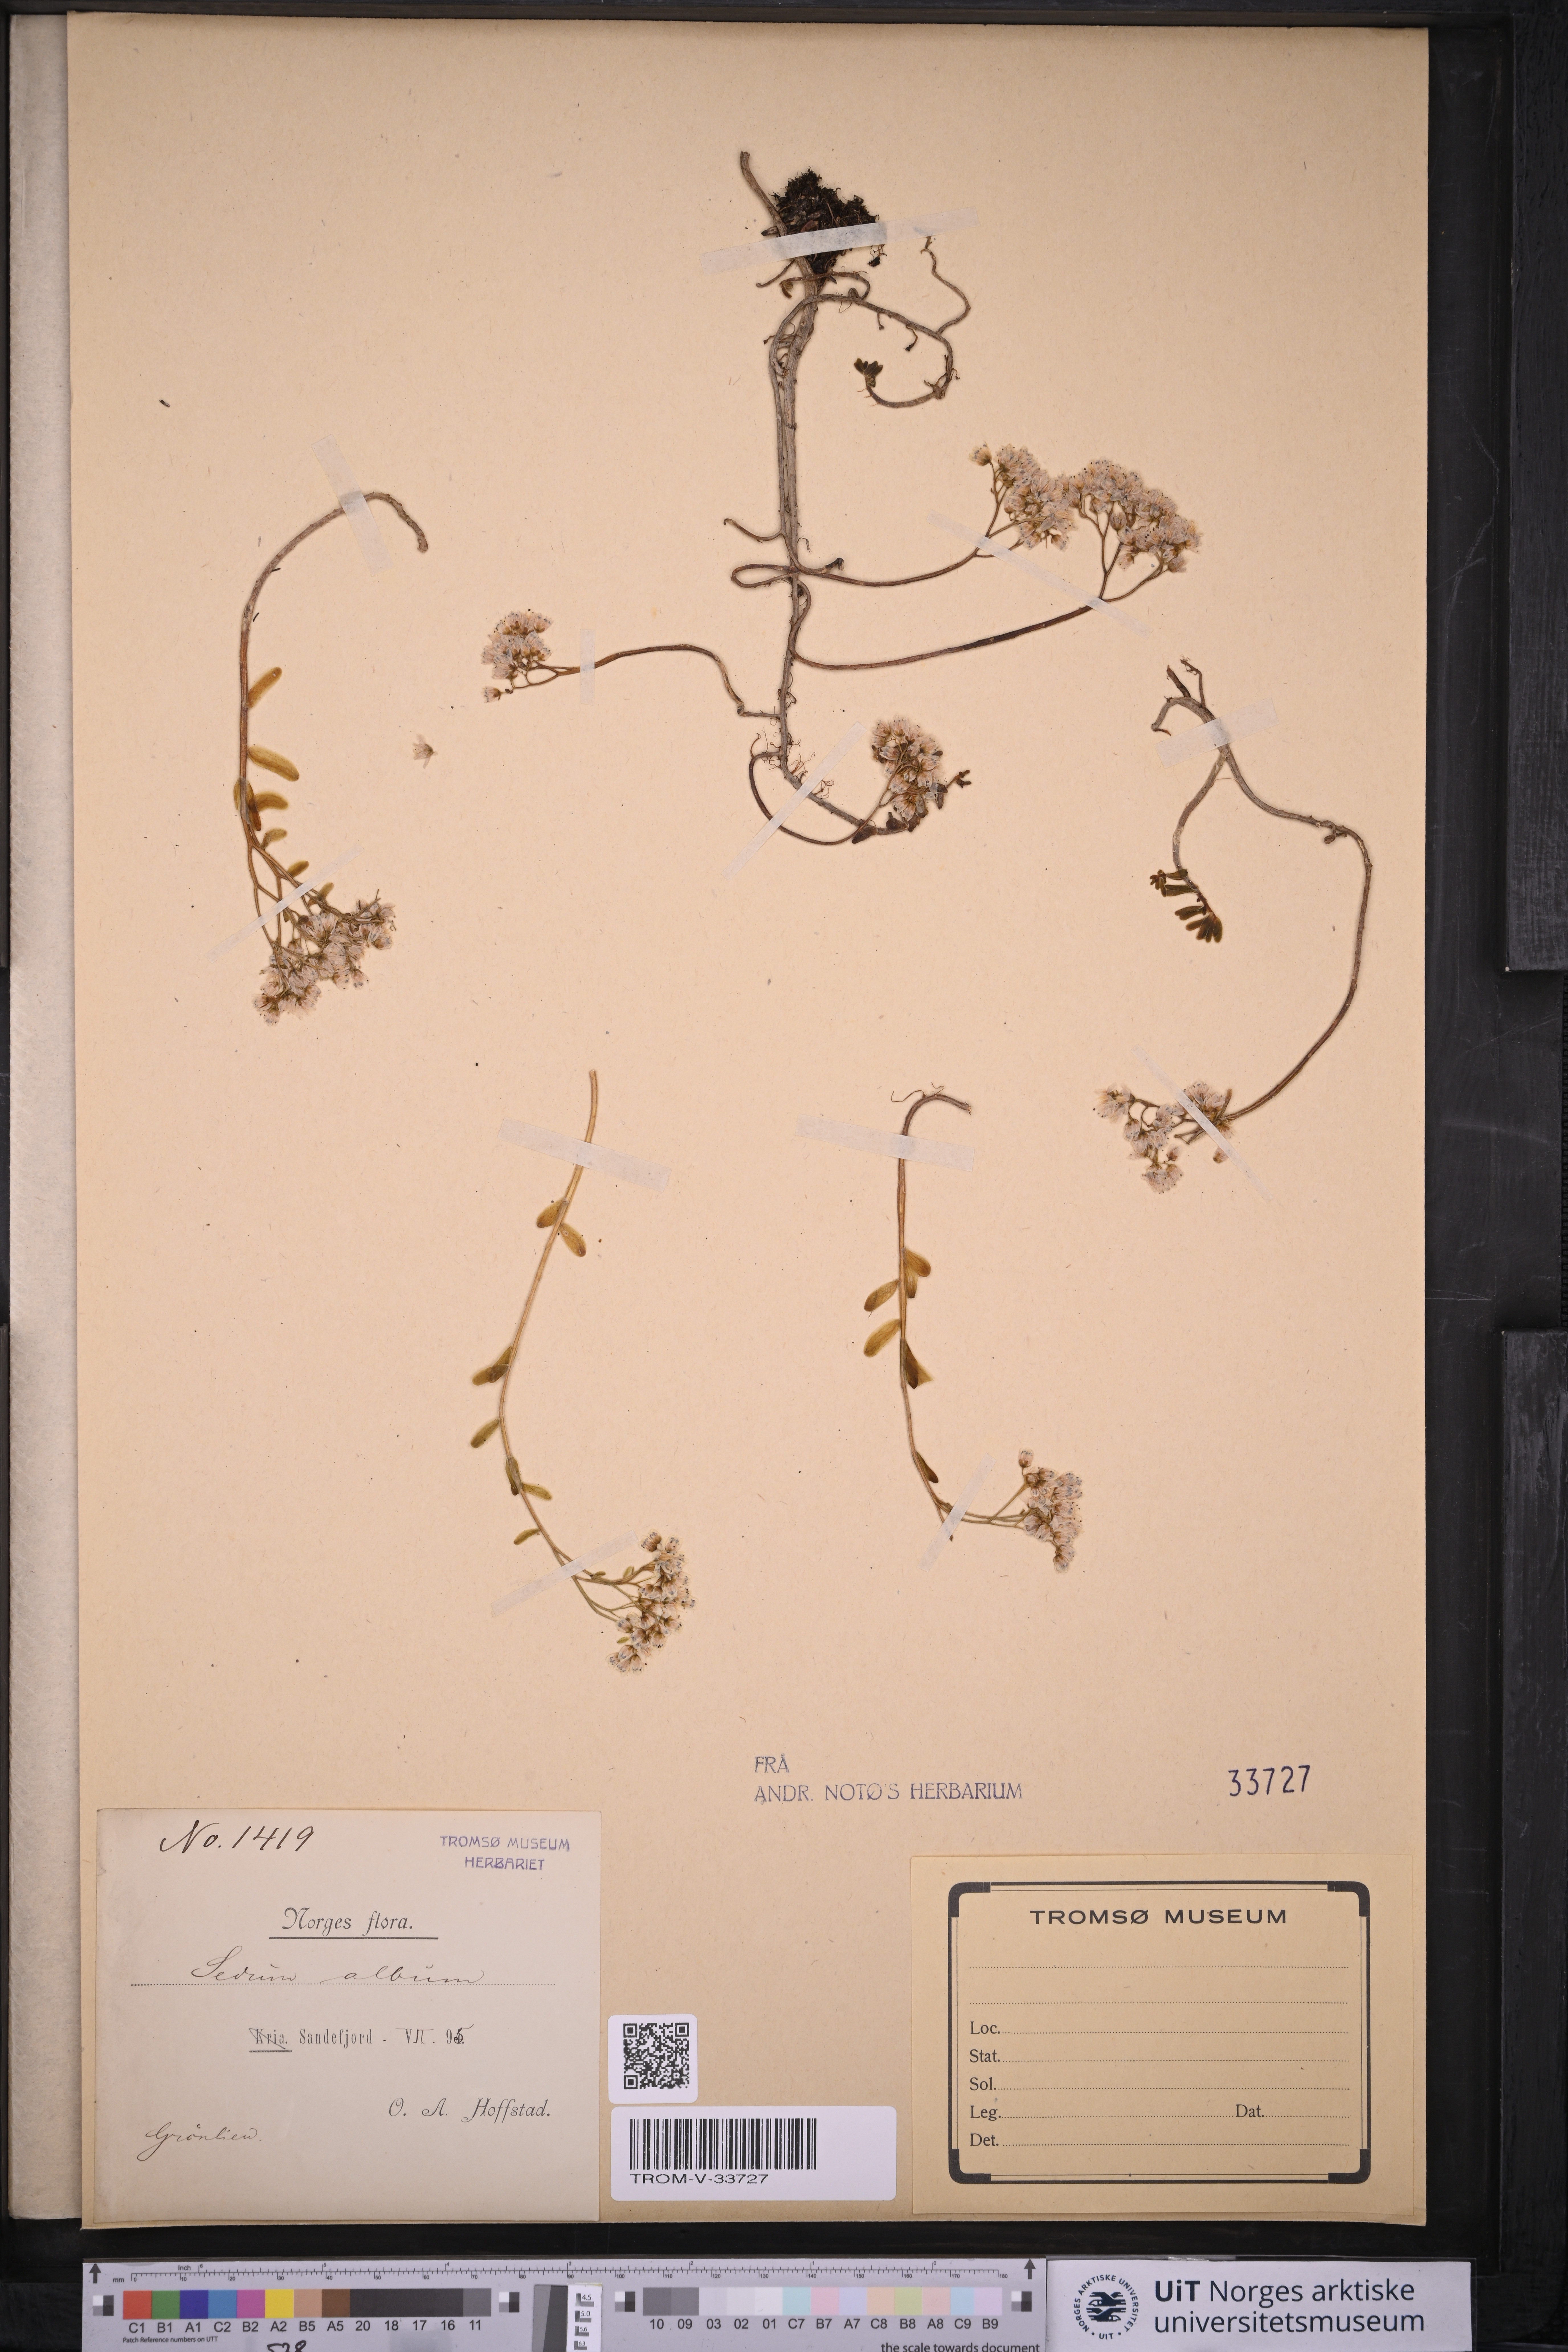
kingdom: Plantae
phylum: Tracheophyta
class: Magnoliopsida
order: Saxifragales
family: Crassulaceae
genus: Sedum
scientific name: Sedum album
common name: White stonecrop
